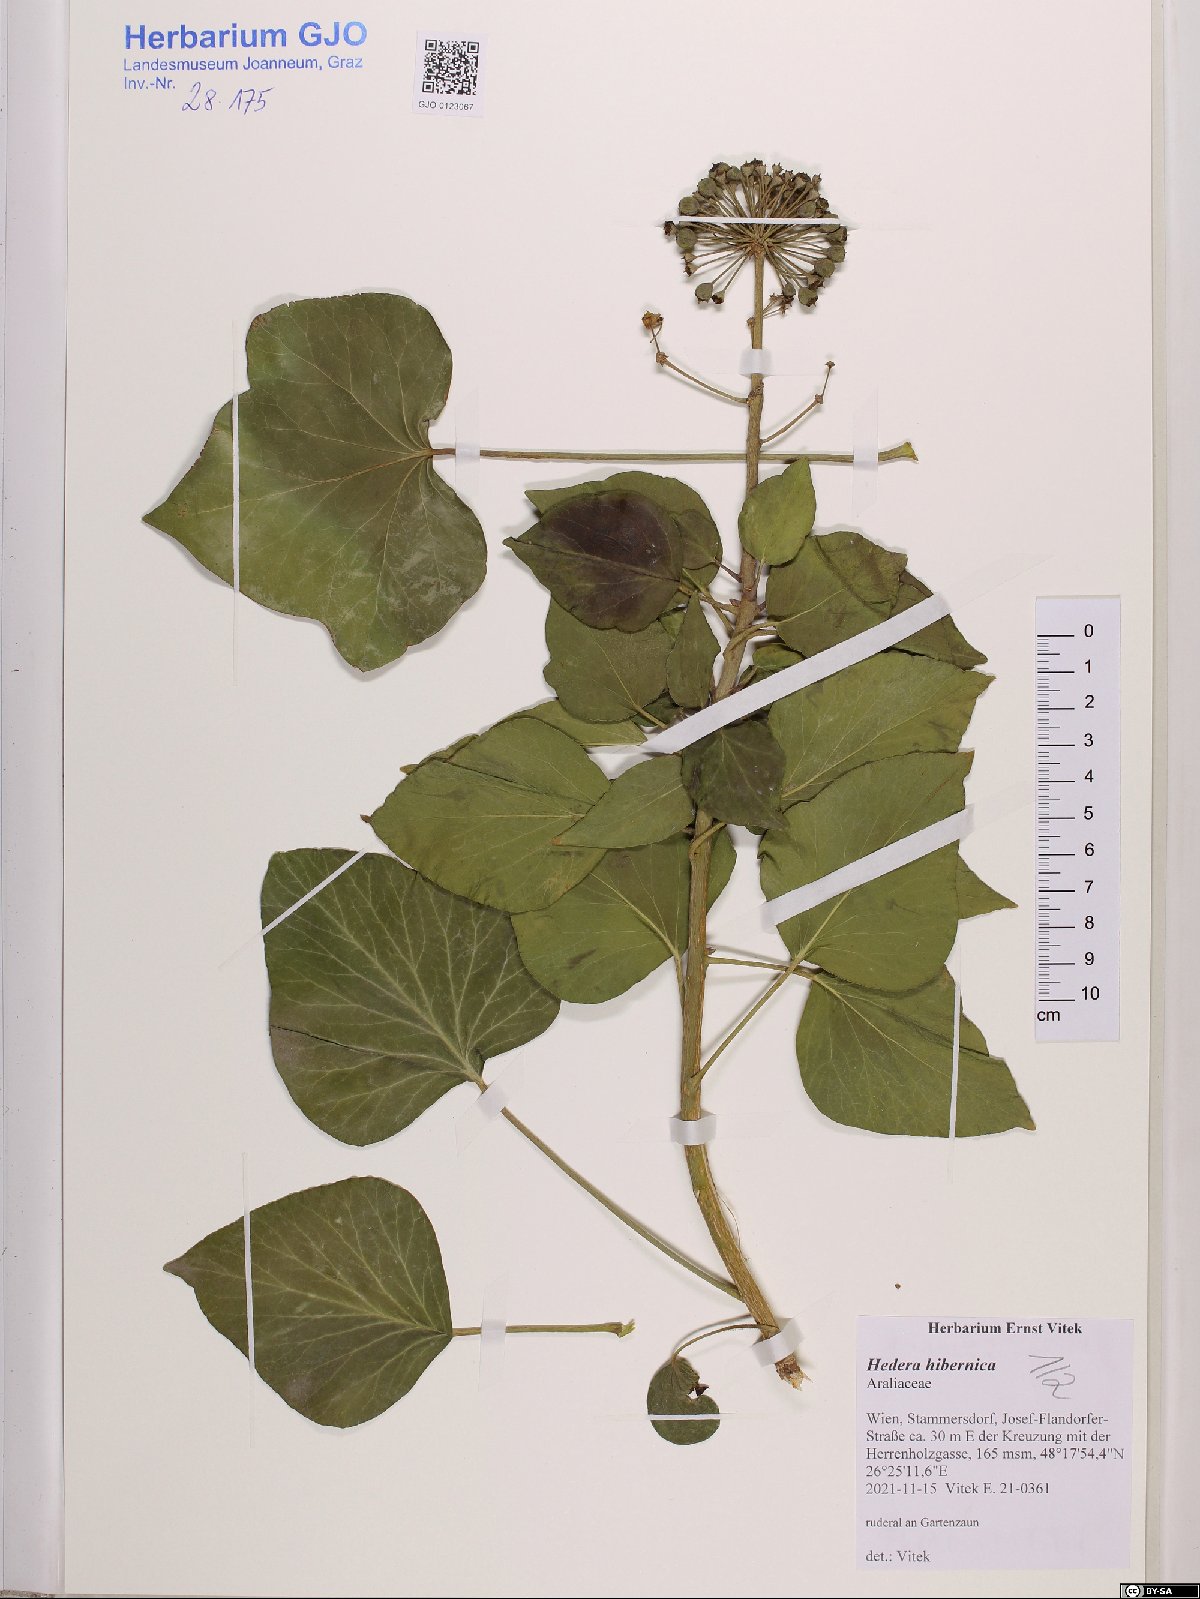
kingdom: Plantae
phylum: Tracheophyta
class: Magnoliopsida
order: Apiales
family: Araliaceae
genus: Hedera
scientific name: Hedera hibernica
